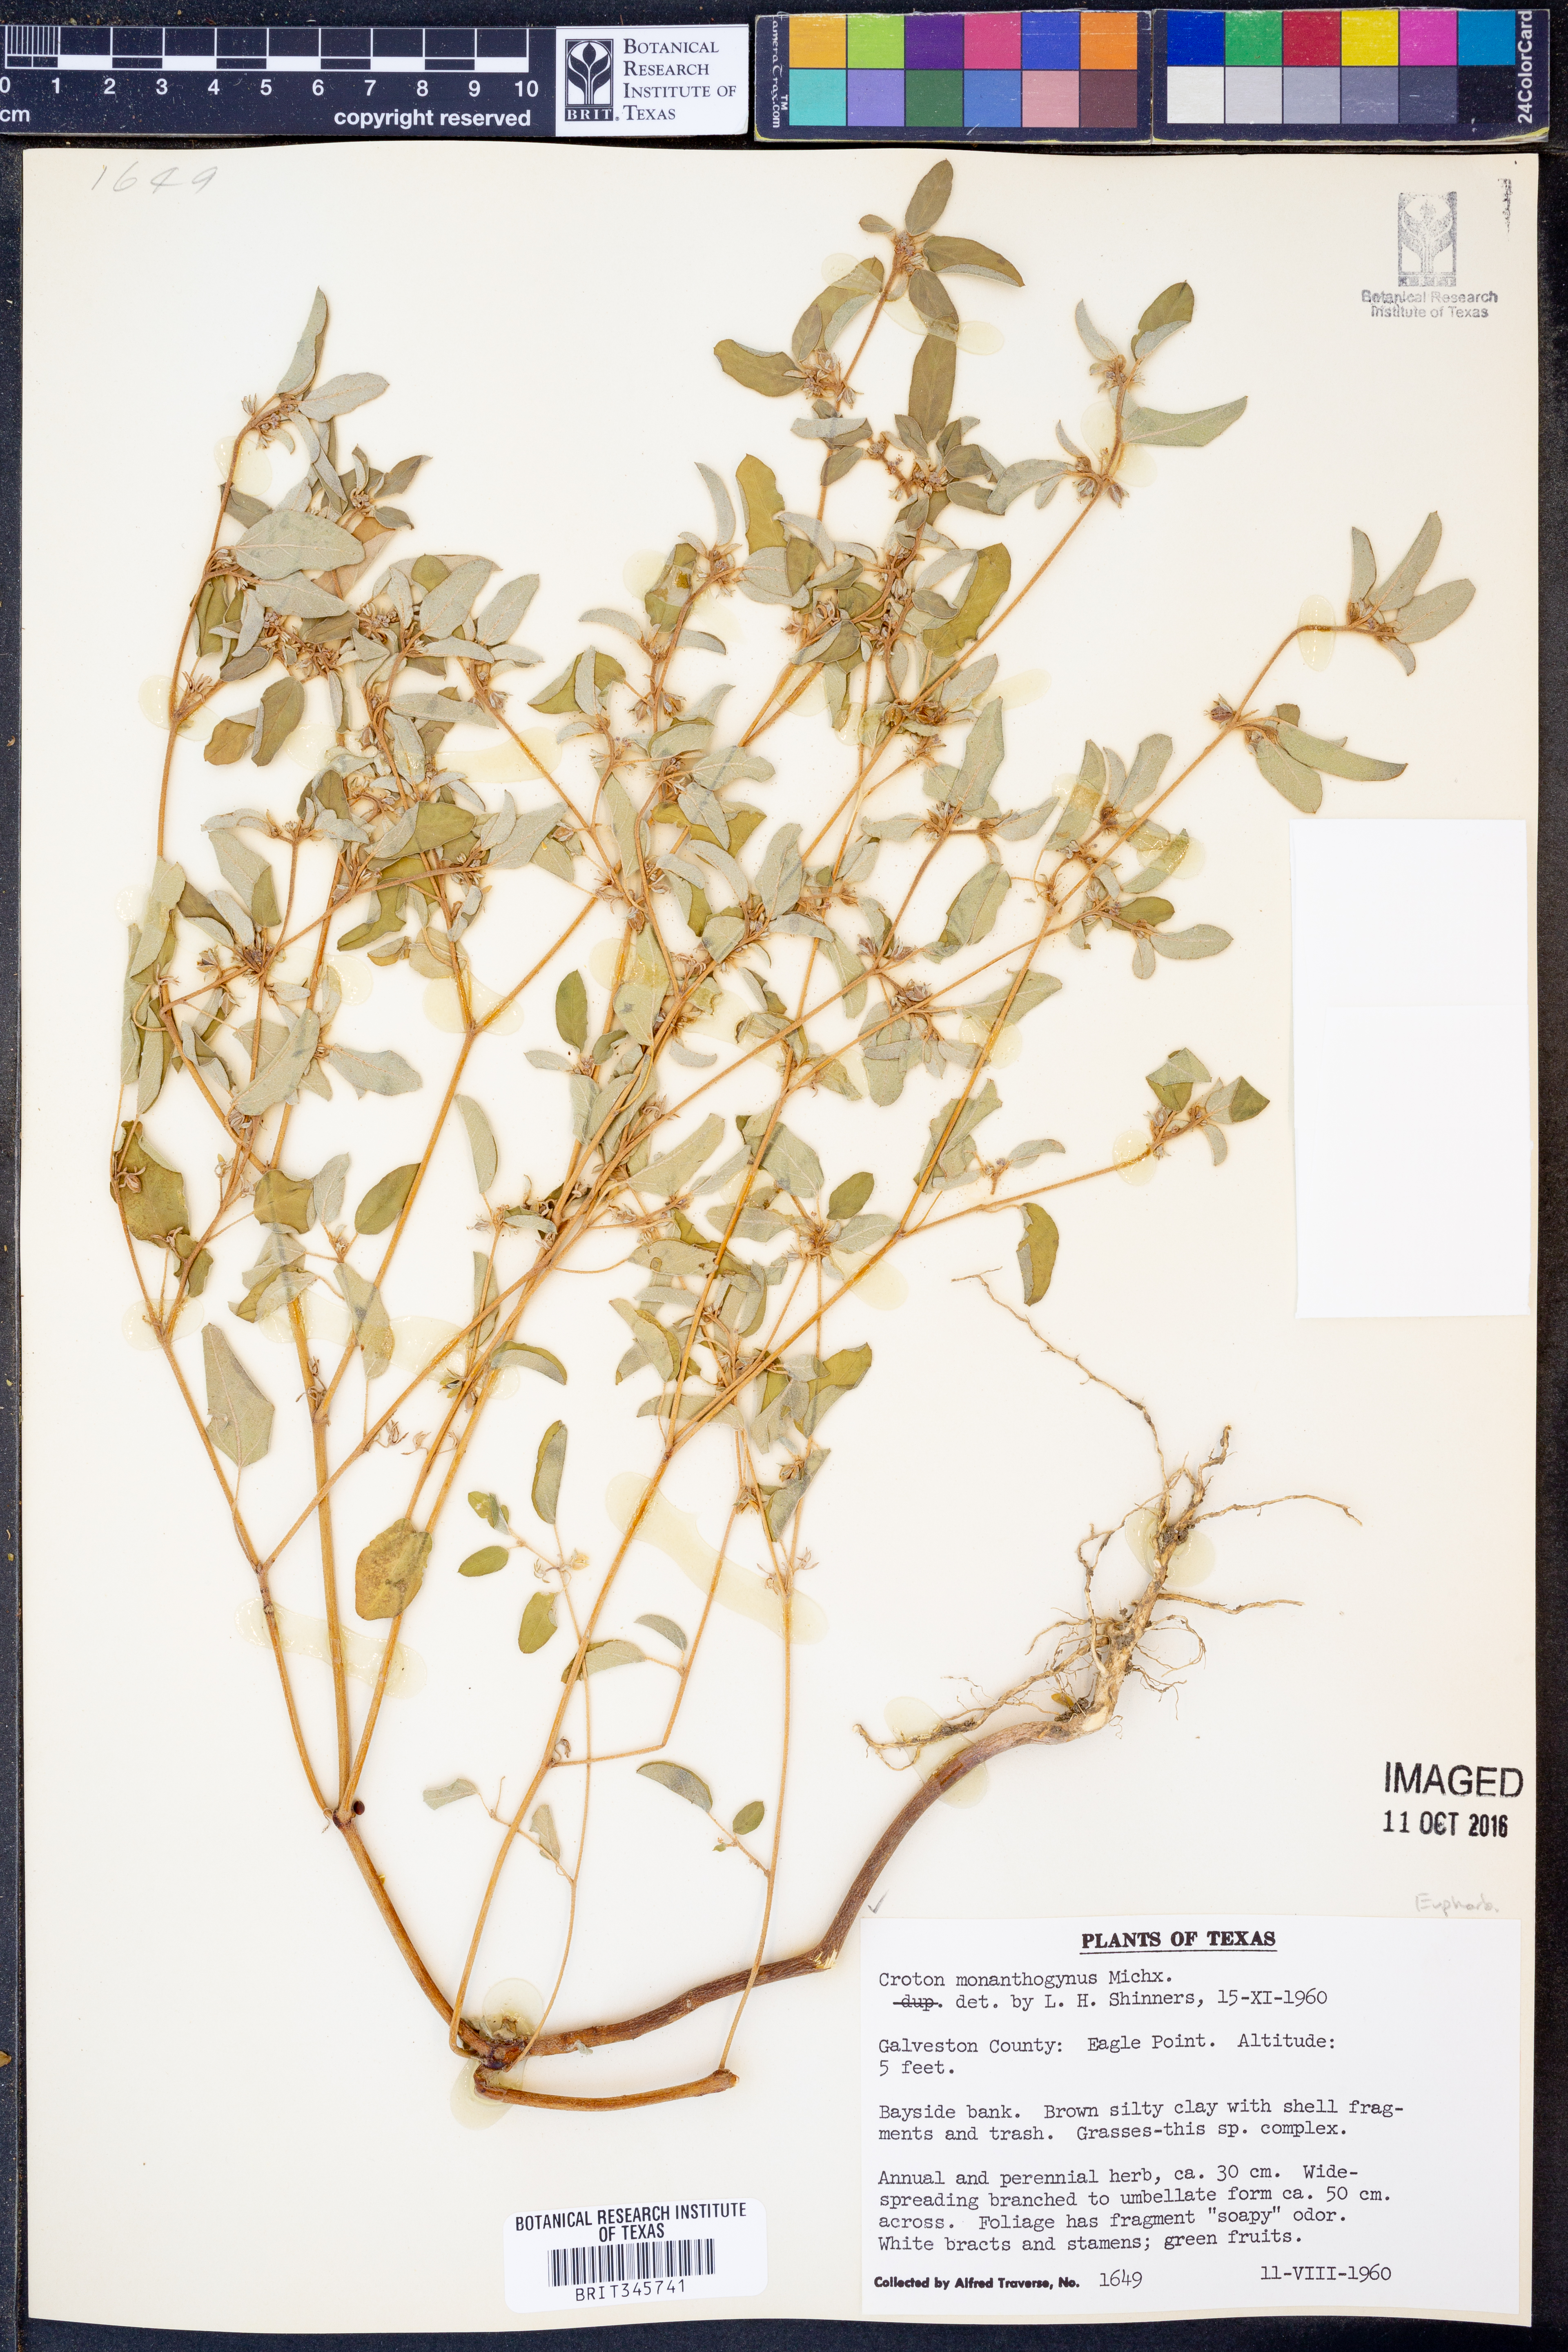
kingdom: Plantae
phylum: Tracheophyta
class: Magnoliopsida
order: Malpighiales
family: Euphorbiaceae
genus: Croton
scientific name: Croton monanthogynus
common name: One-seed croton
